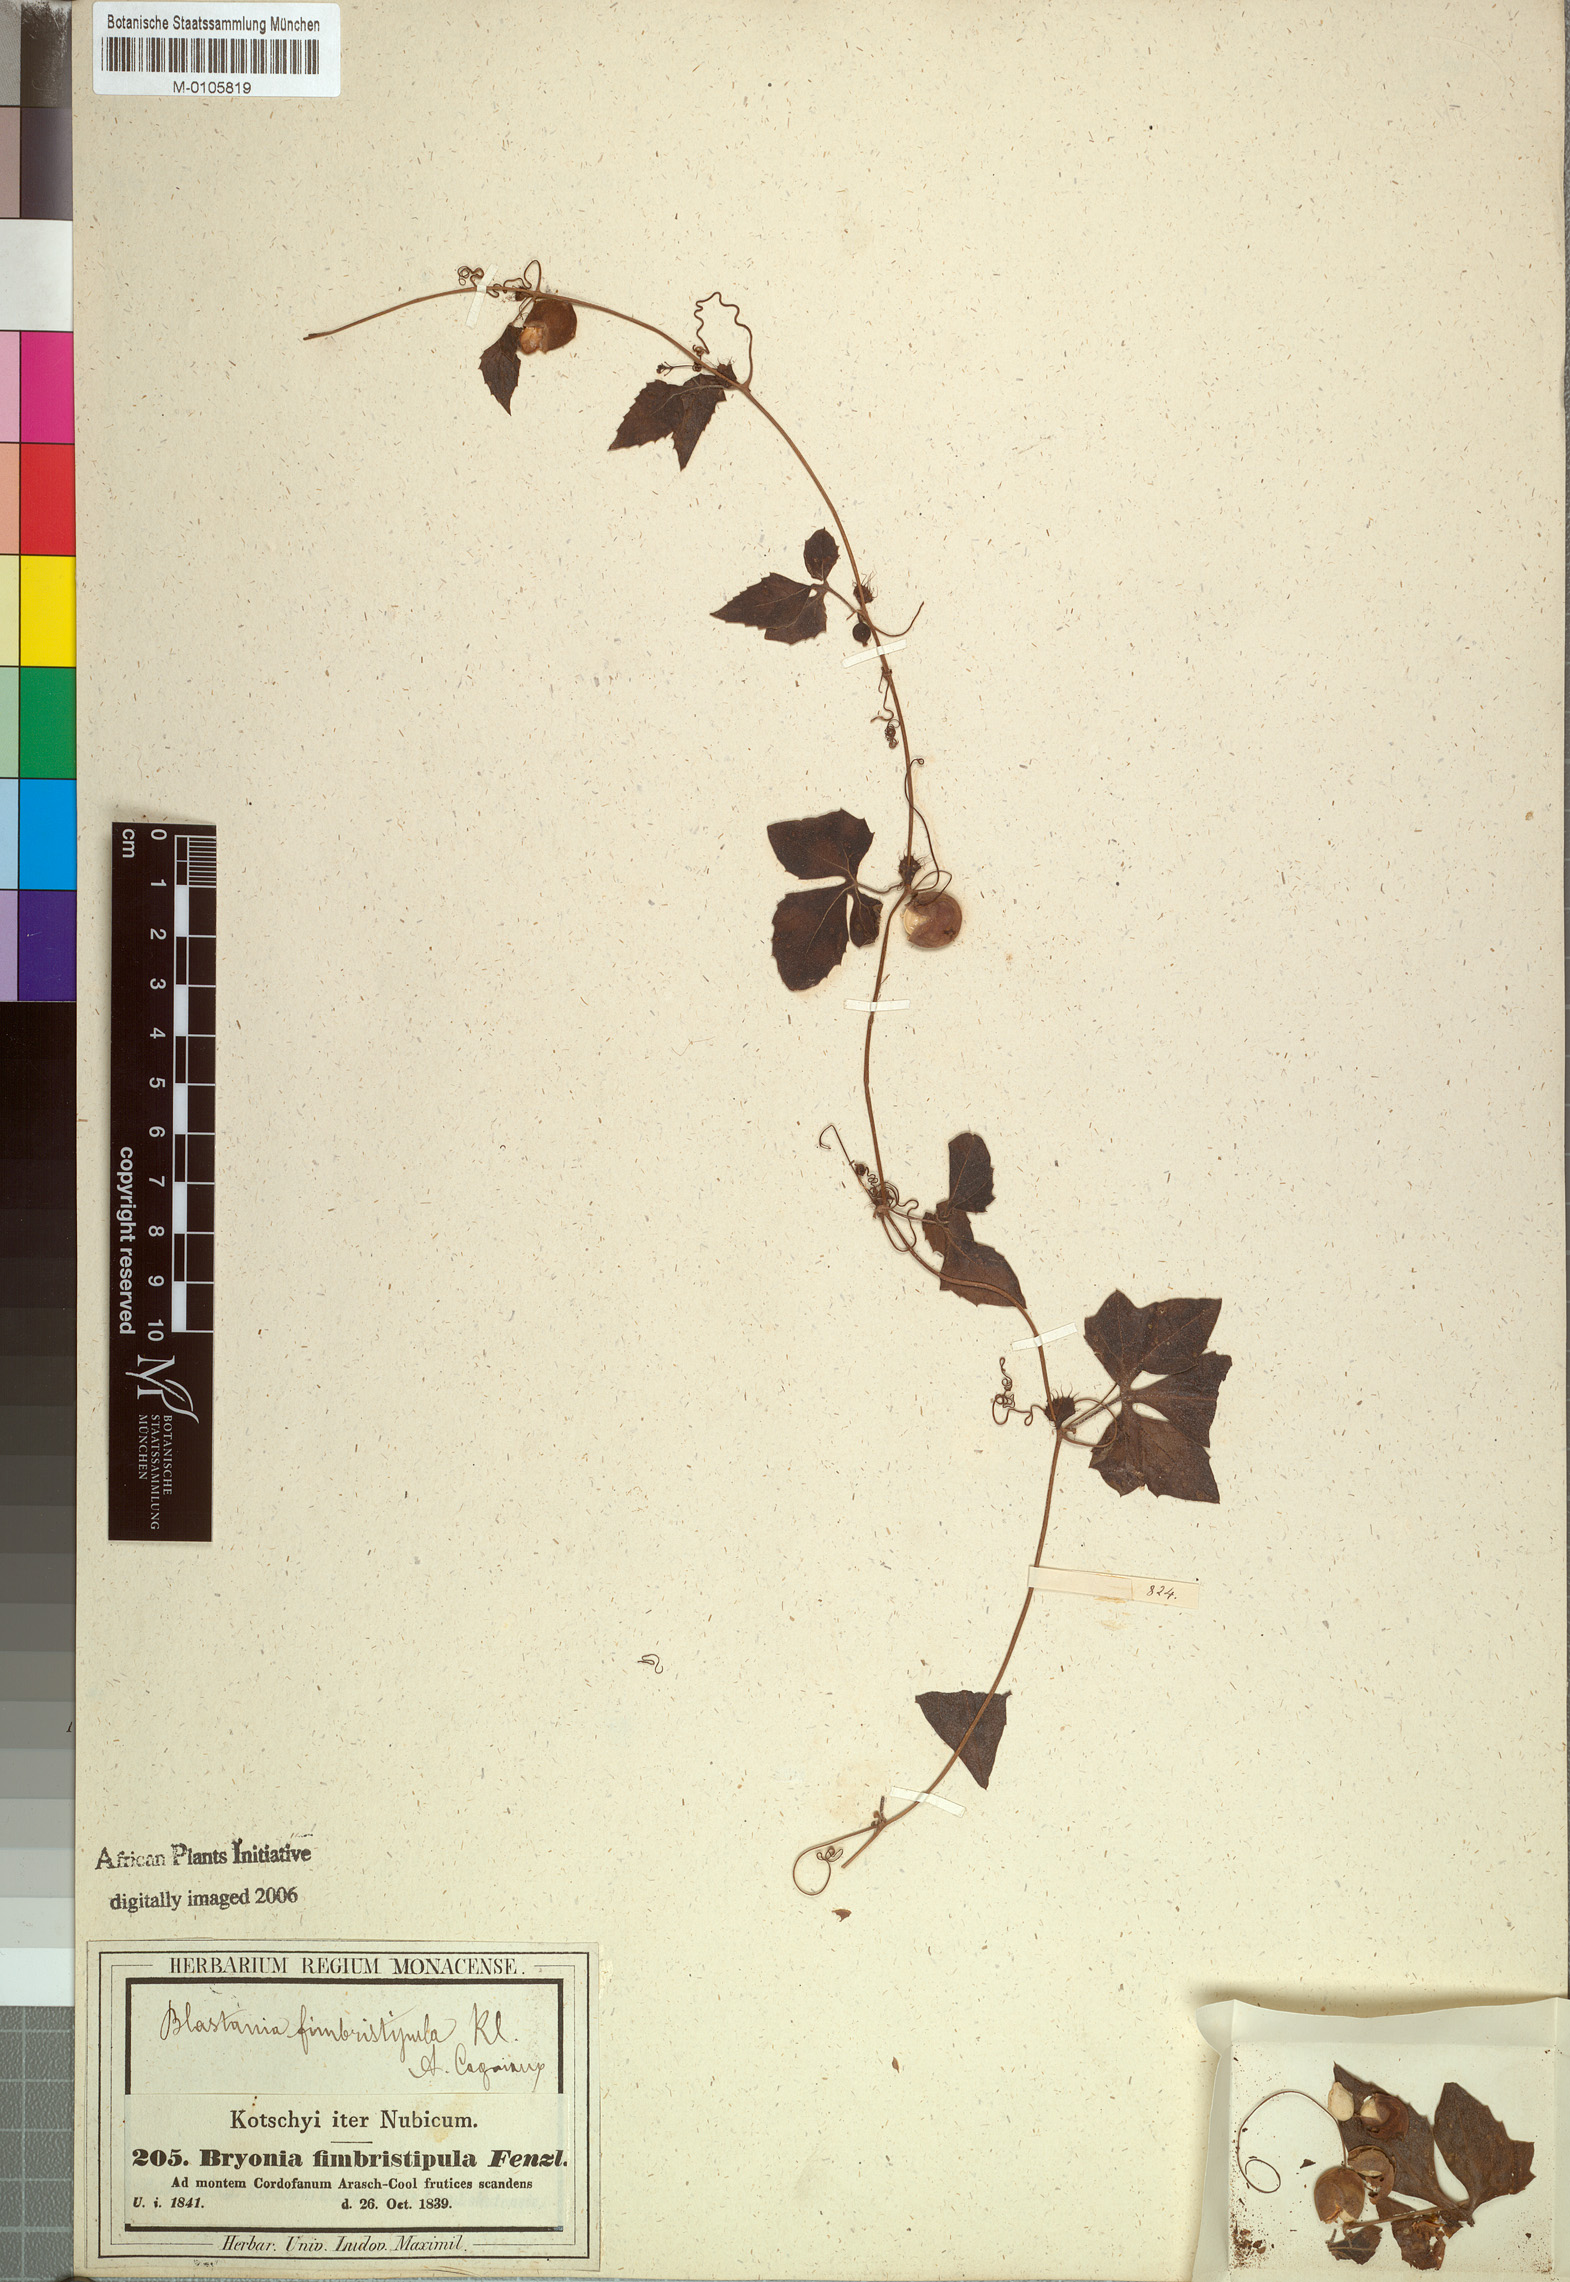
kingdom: Plantae
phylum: Tracheophyta
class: Magnoliopsida
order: Cucurbitales
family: Cucurbitaceae
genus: Blastania
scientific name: Blastania cerasiformis
